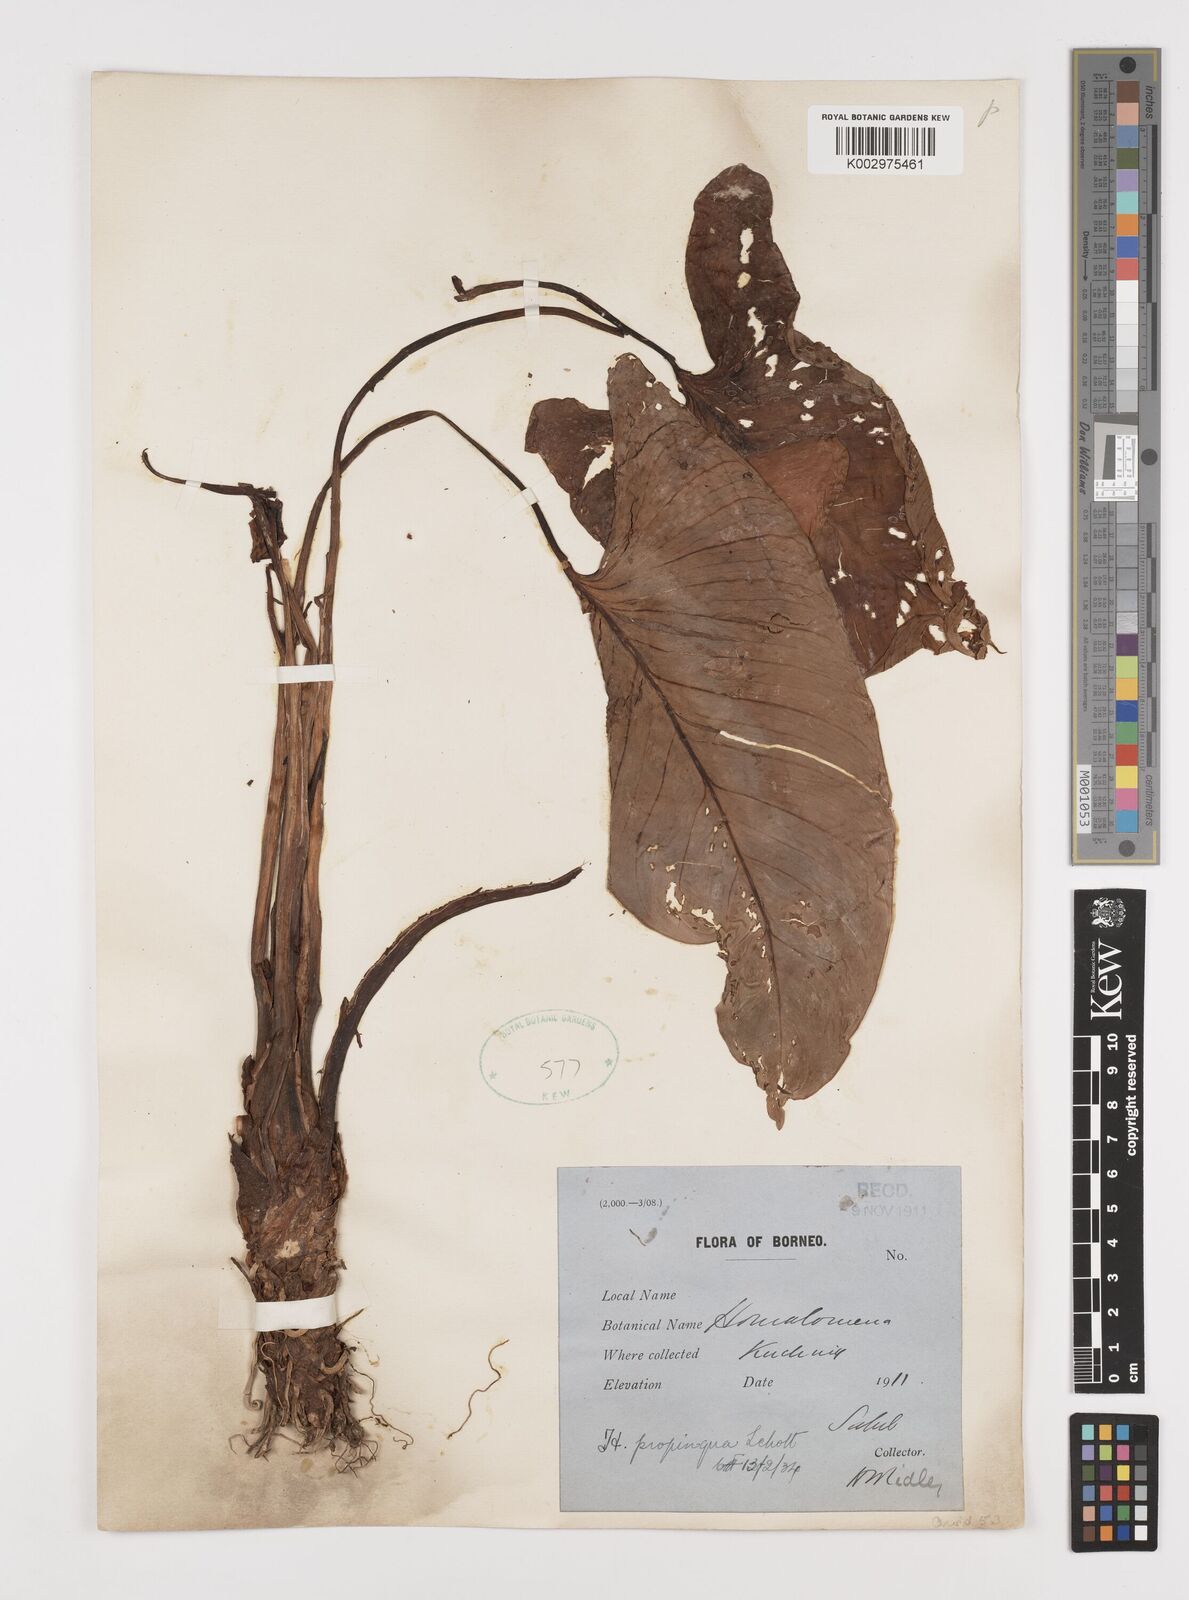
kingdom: Plantae
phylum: Tracheophyta
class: Liliopsida
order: Alismatales
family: Araceae
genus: Homalomena
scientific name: Homalomena humilis
